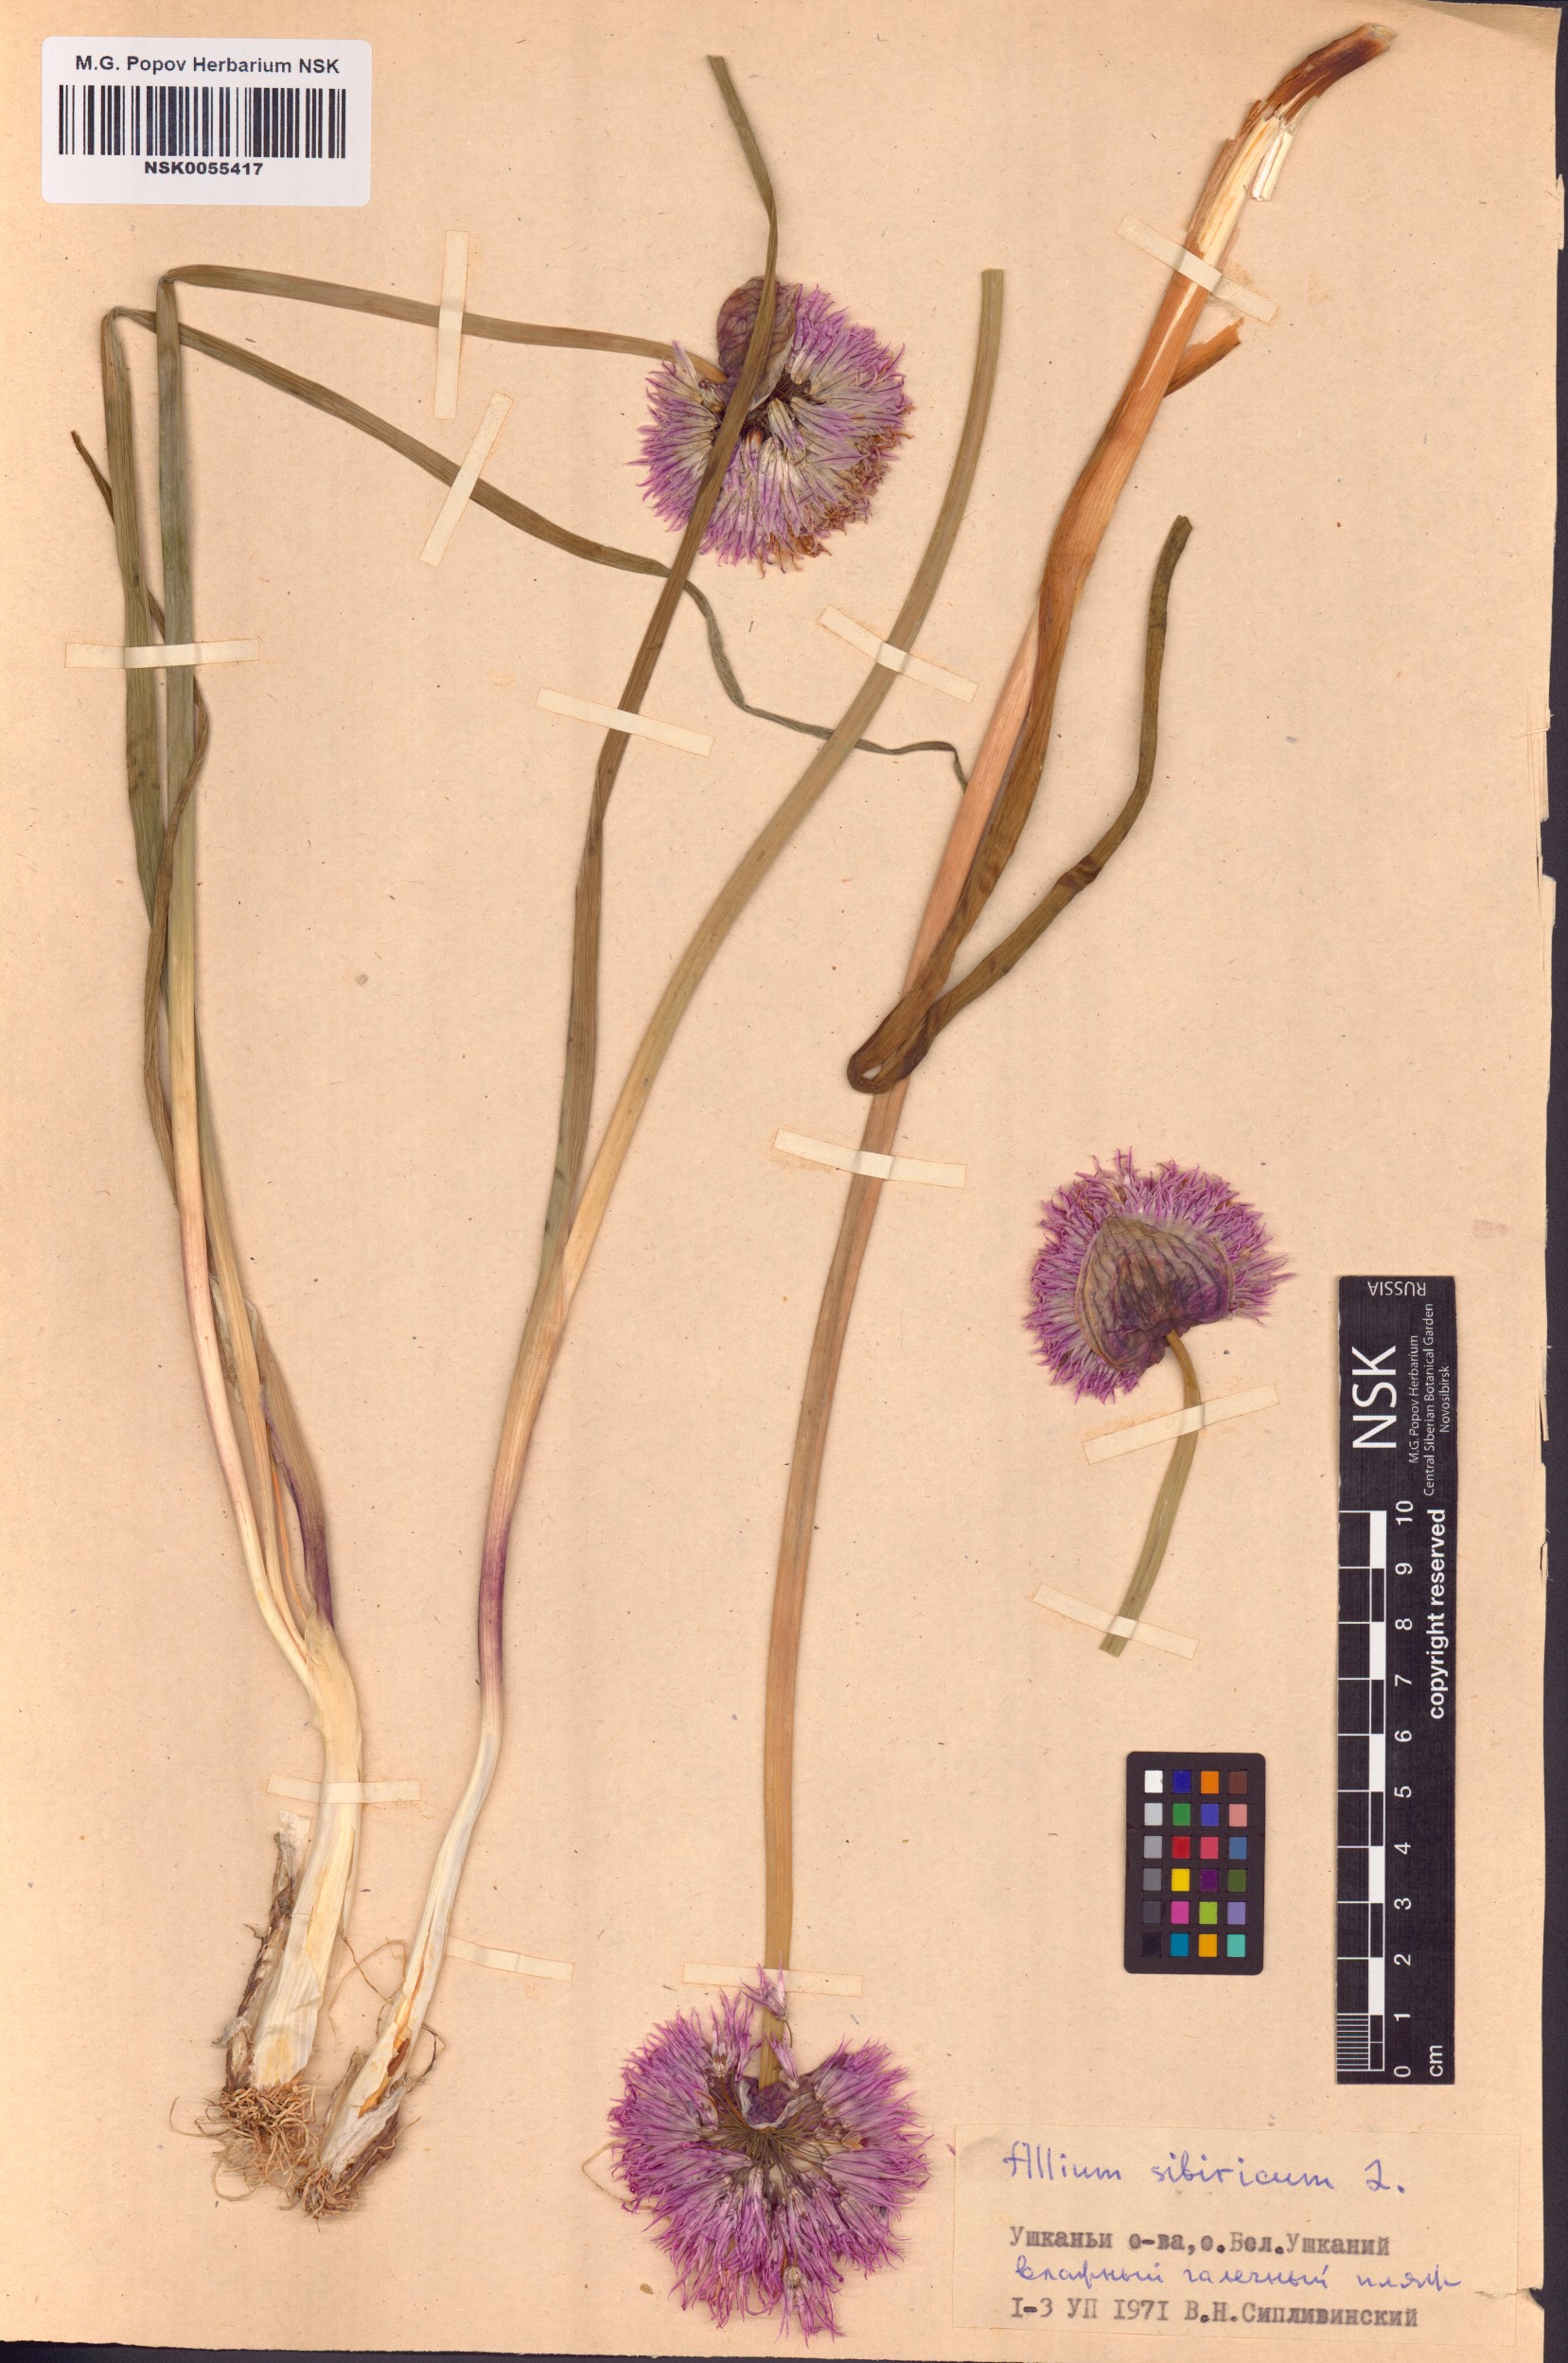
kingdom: Plantae
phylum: Tracheophyta
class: Liliopsida
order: Asparagales
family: Amaryllidaceae
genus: Allium
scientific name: Allium schoenoprasum
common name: Chives
